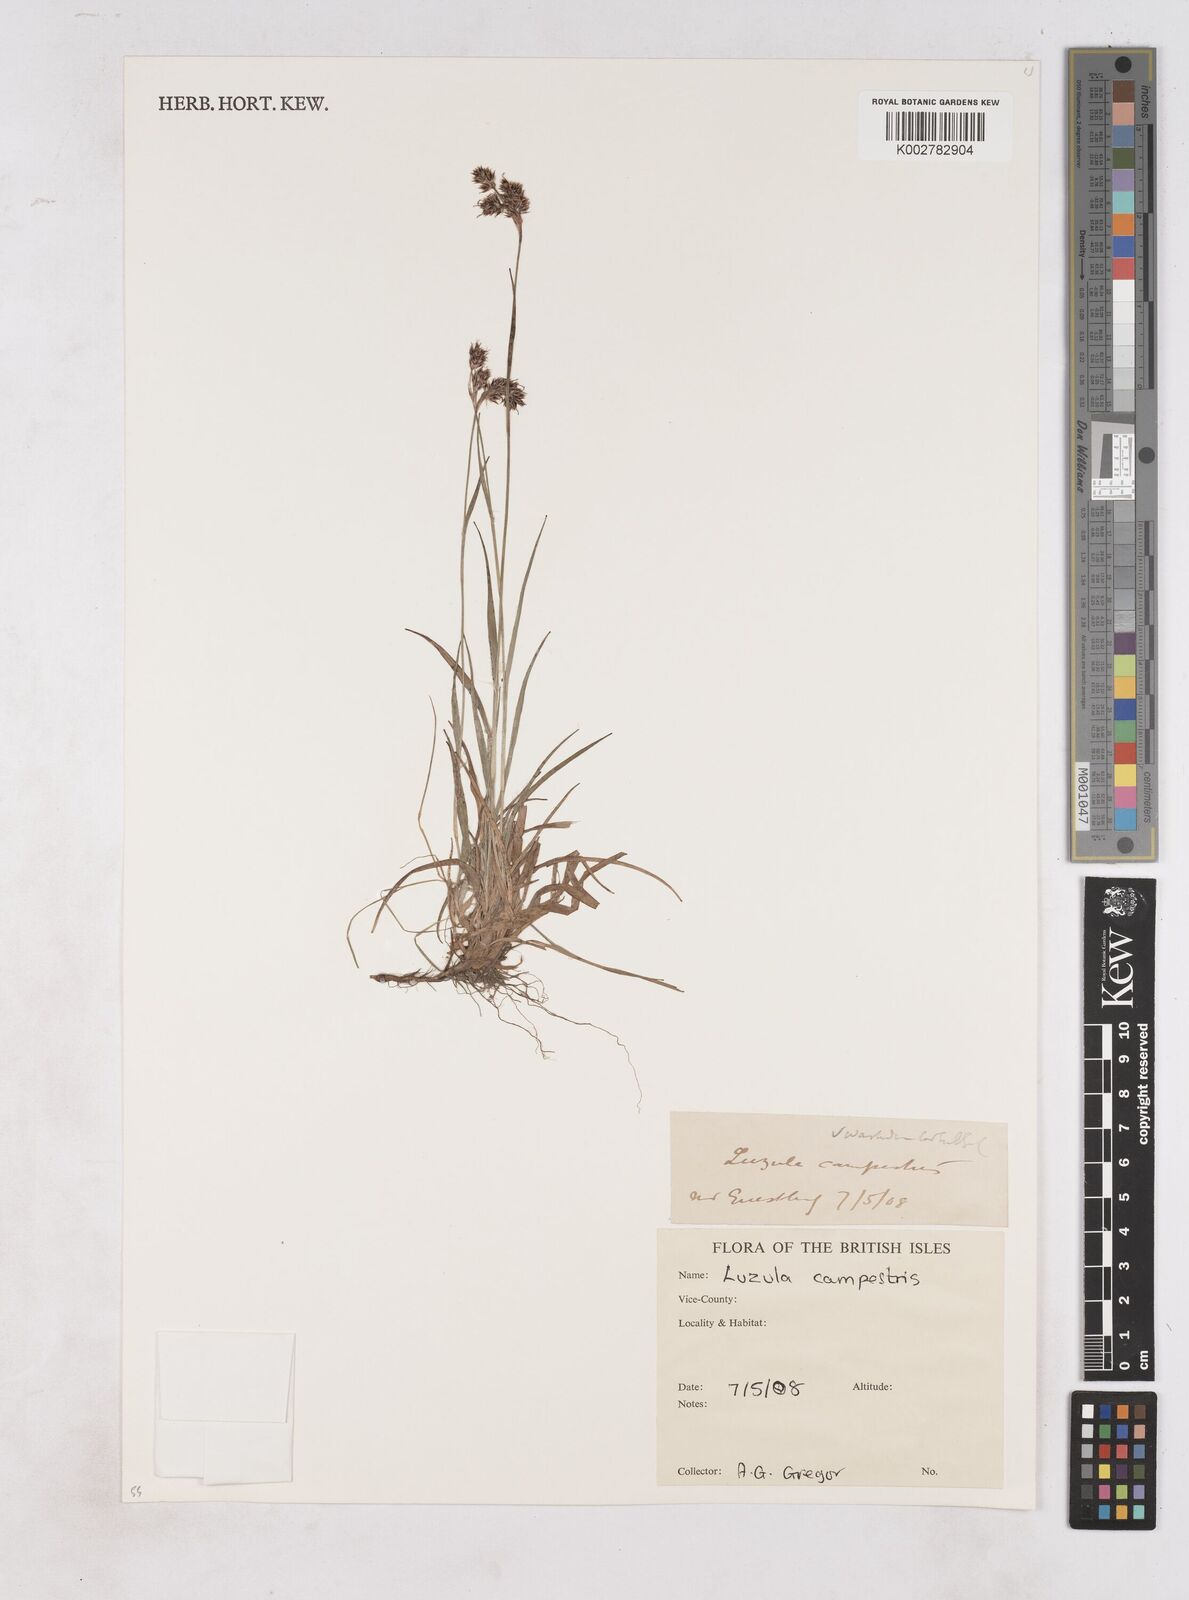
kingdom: Plantae
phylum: Tracheophyta
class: Liliopsida
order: Poales
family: Juncaceae
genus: Luzula
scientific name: Luzula campestris
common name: Field wood-rush
